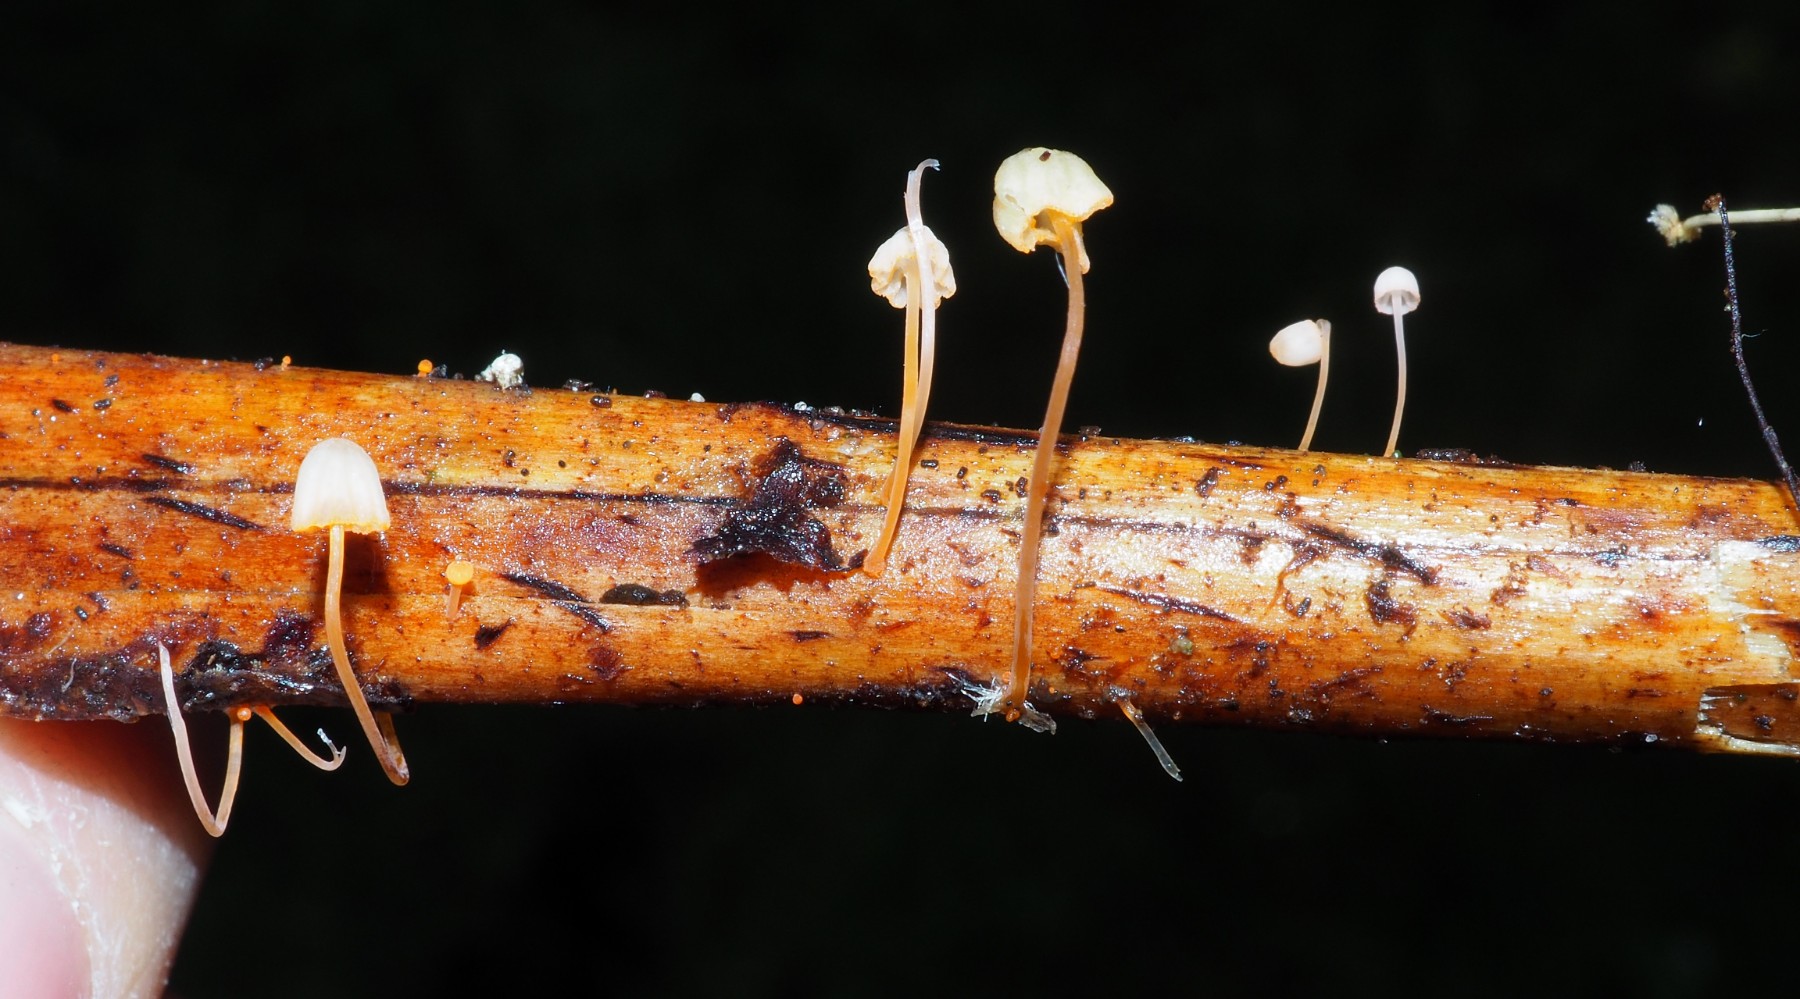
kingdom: Fungi
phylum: Basidiomycota
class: Agaricomycetes
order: Agaricales
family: Mycenaceae
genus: Mycena
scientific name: Mycena pterigena
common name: bregne-huesvamp
